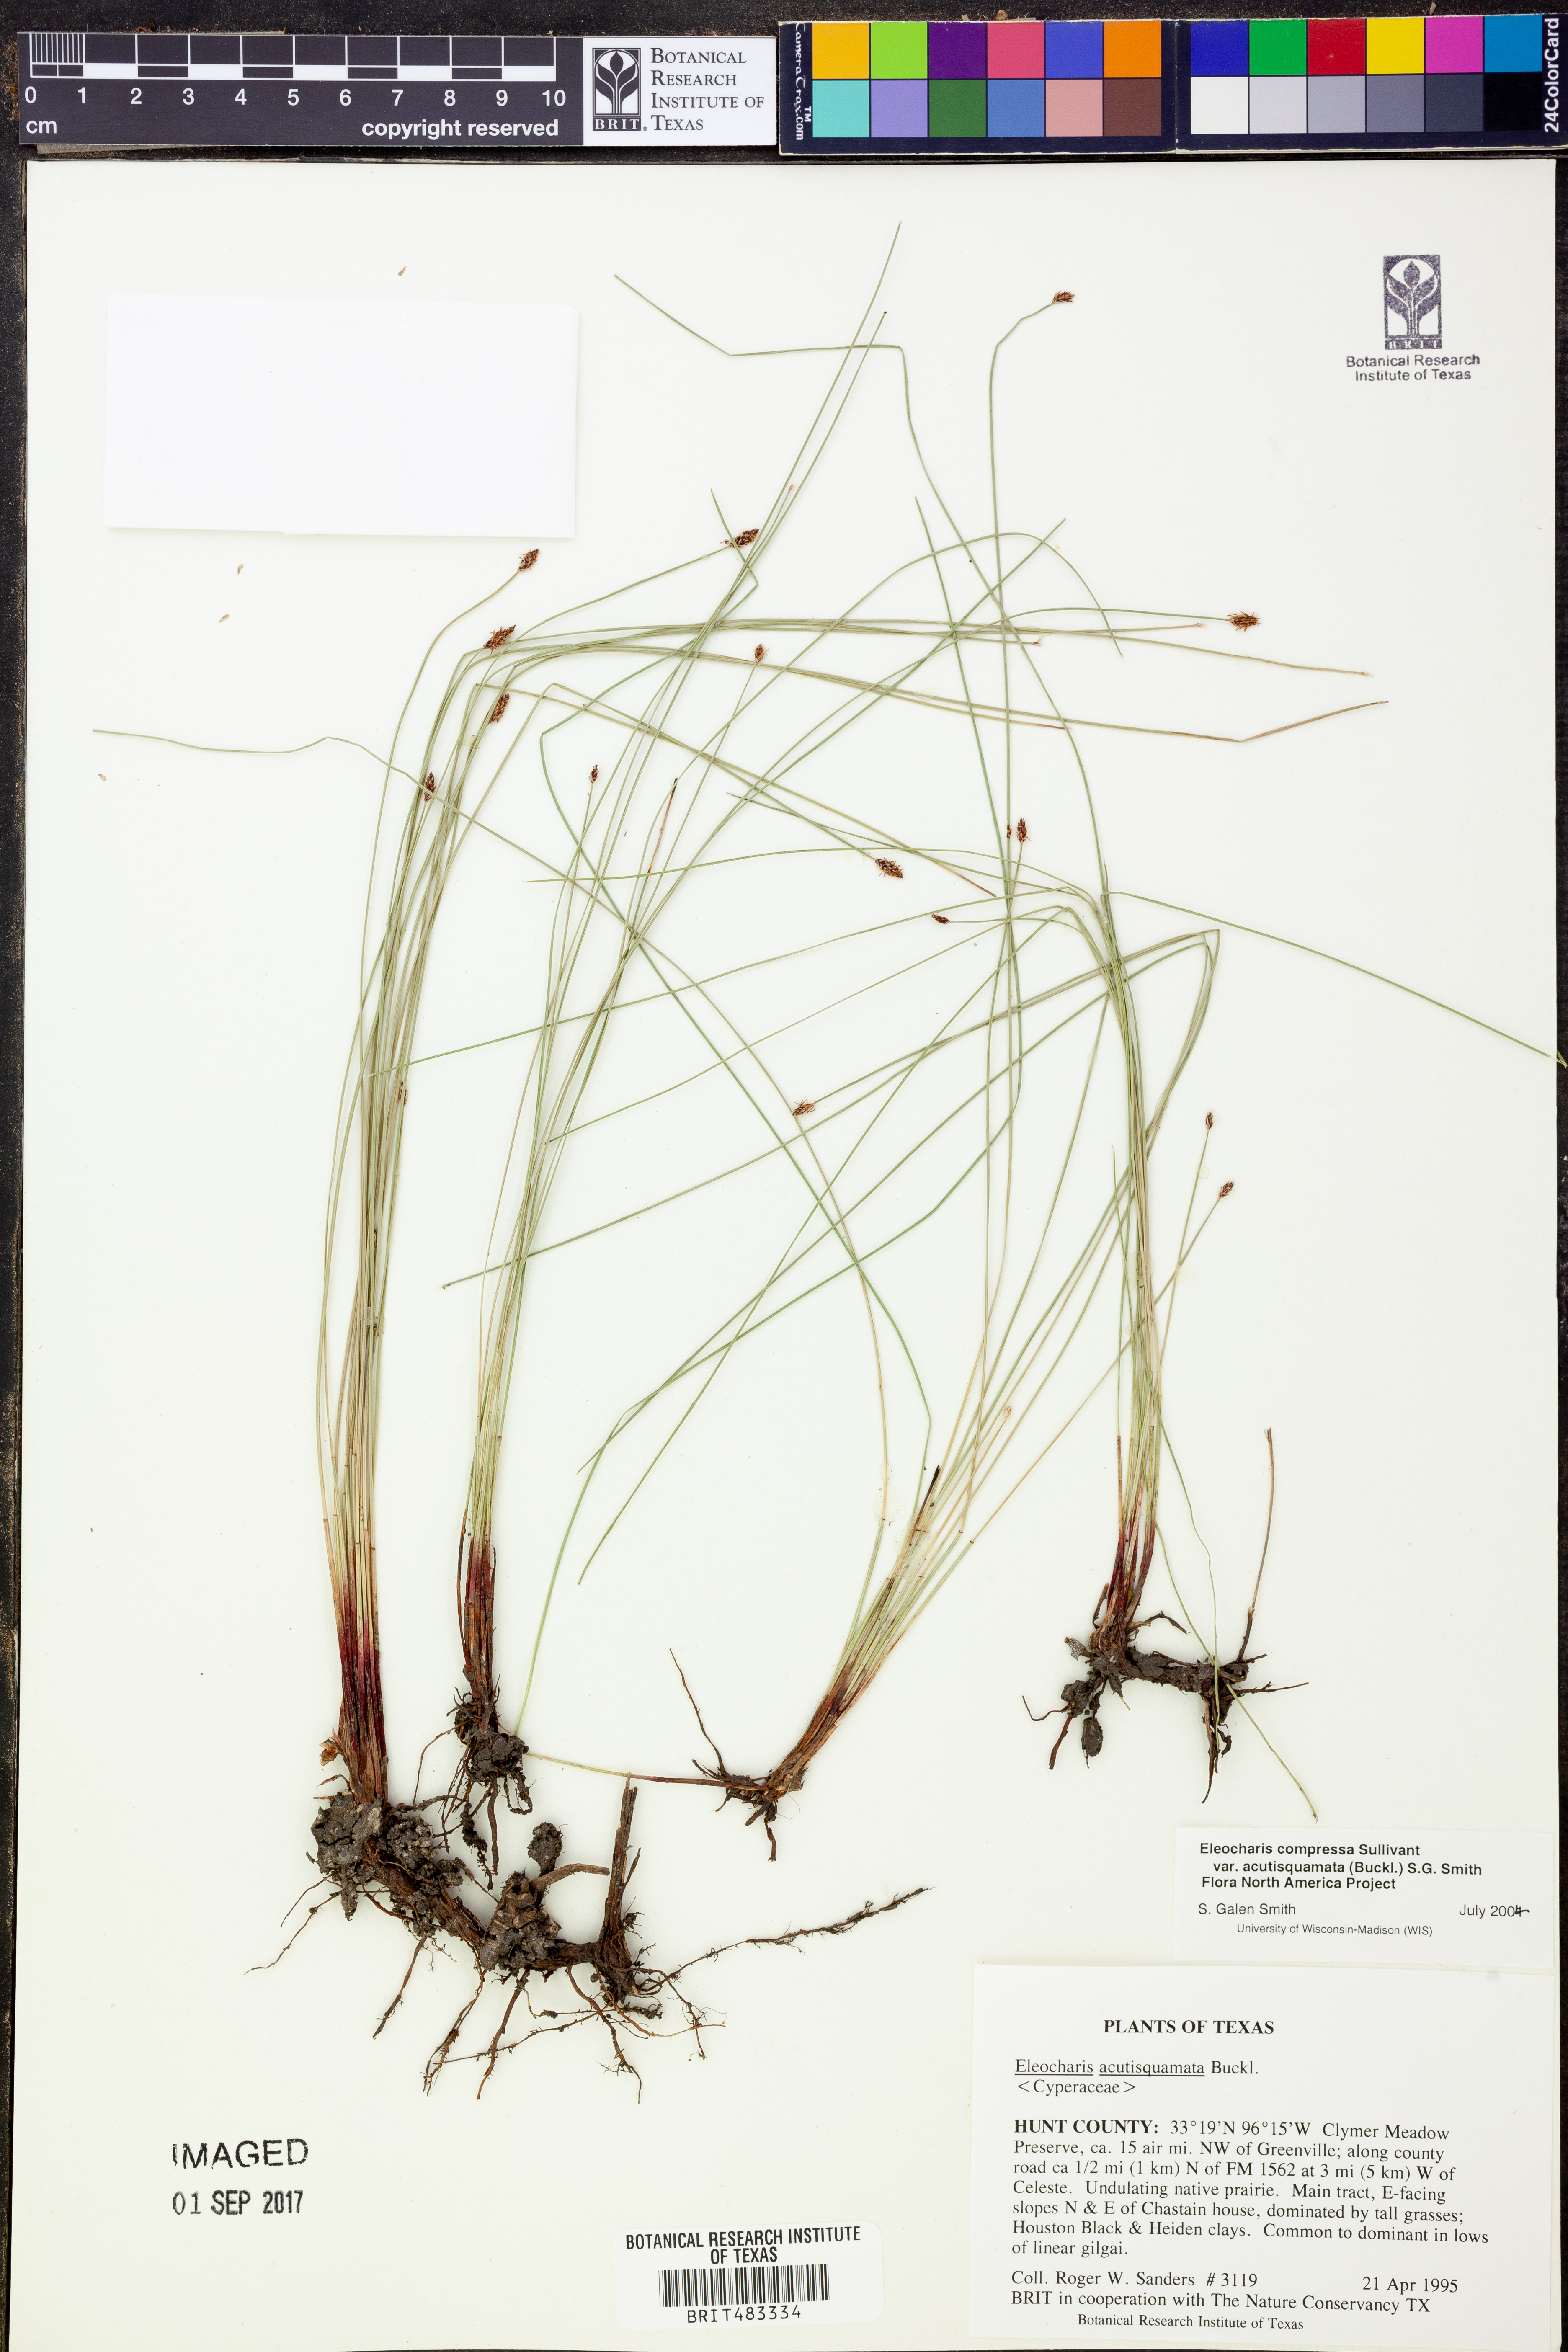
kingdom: Plantae
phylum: Tracheophyta
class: Liliopsida
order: Poales
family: Cyperaceae
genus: Eleocharis
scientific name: Eleocharis compressa
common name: Flat-stem spike-rush
